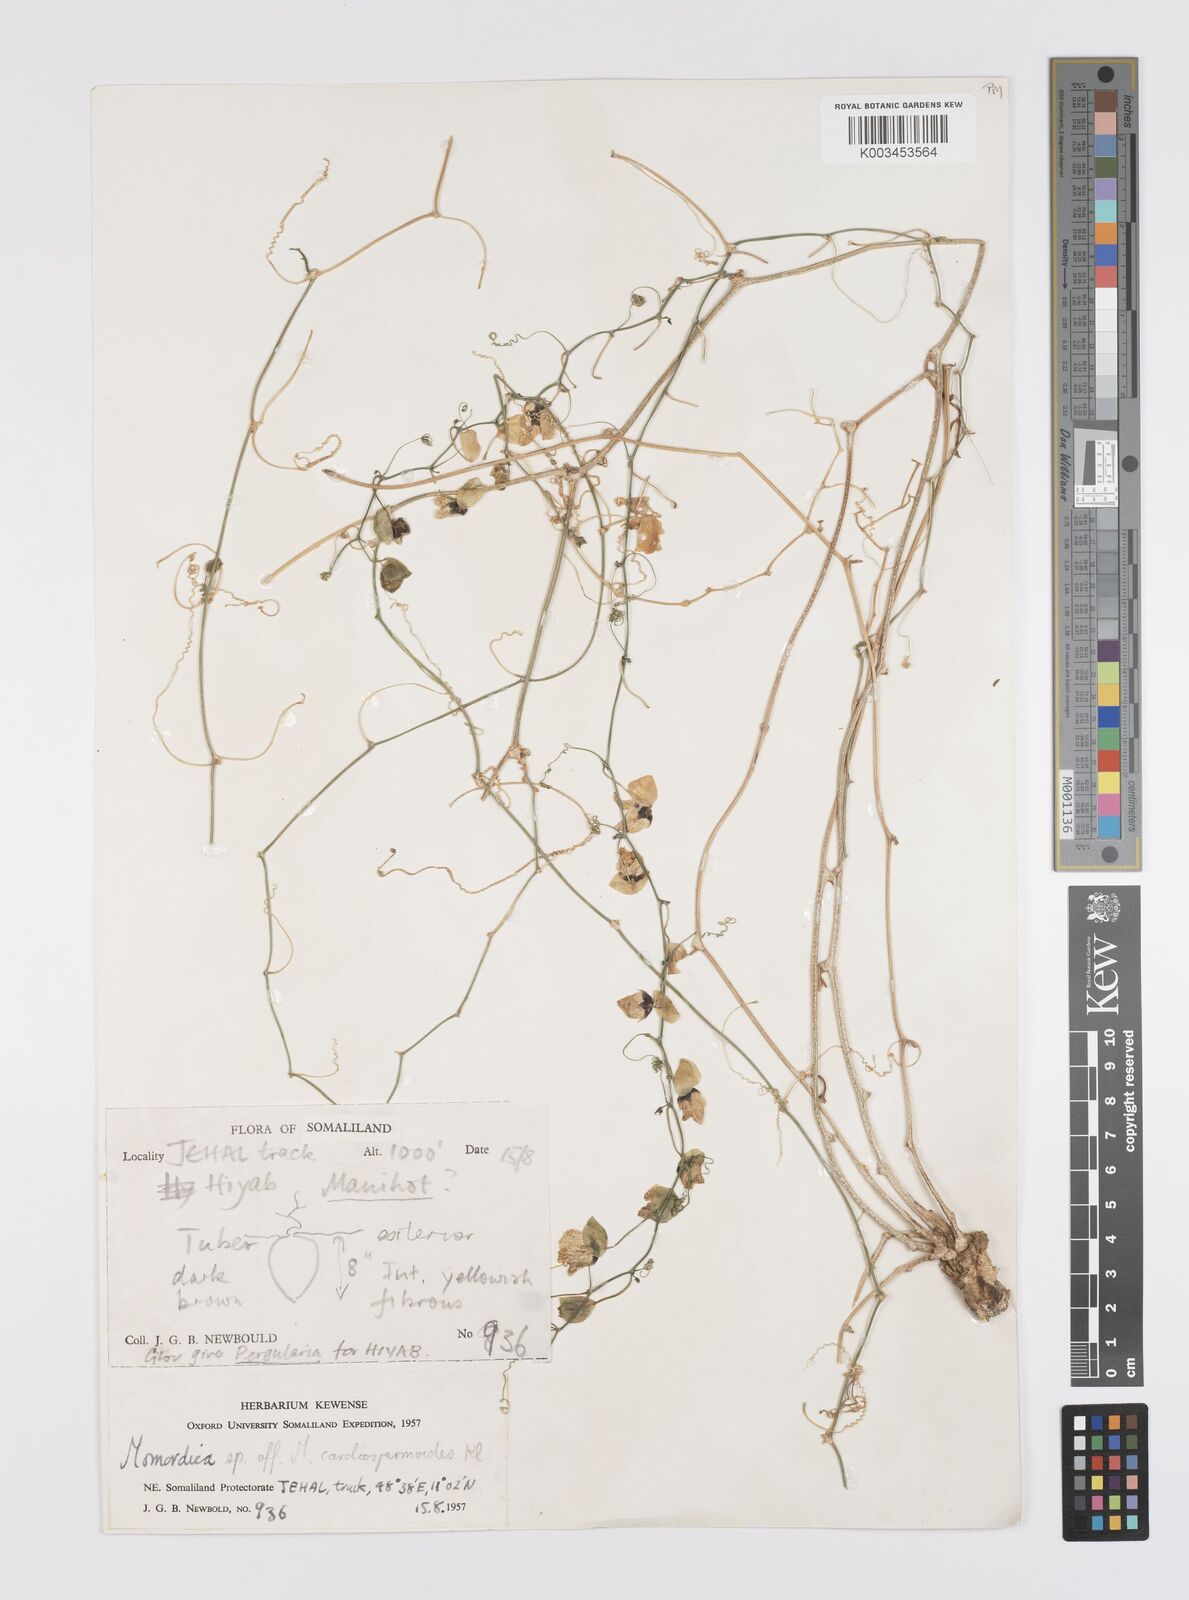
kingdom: Plantae
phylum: Tracheophyta
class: Magnoliopsida
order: Cucurbitales
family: Cucurbitaceae
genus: Momordica
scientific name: Momordica trifoliolata
